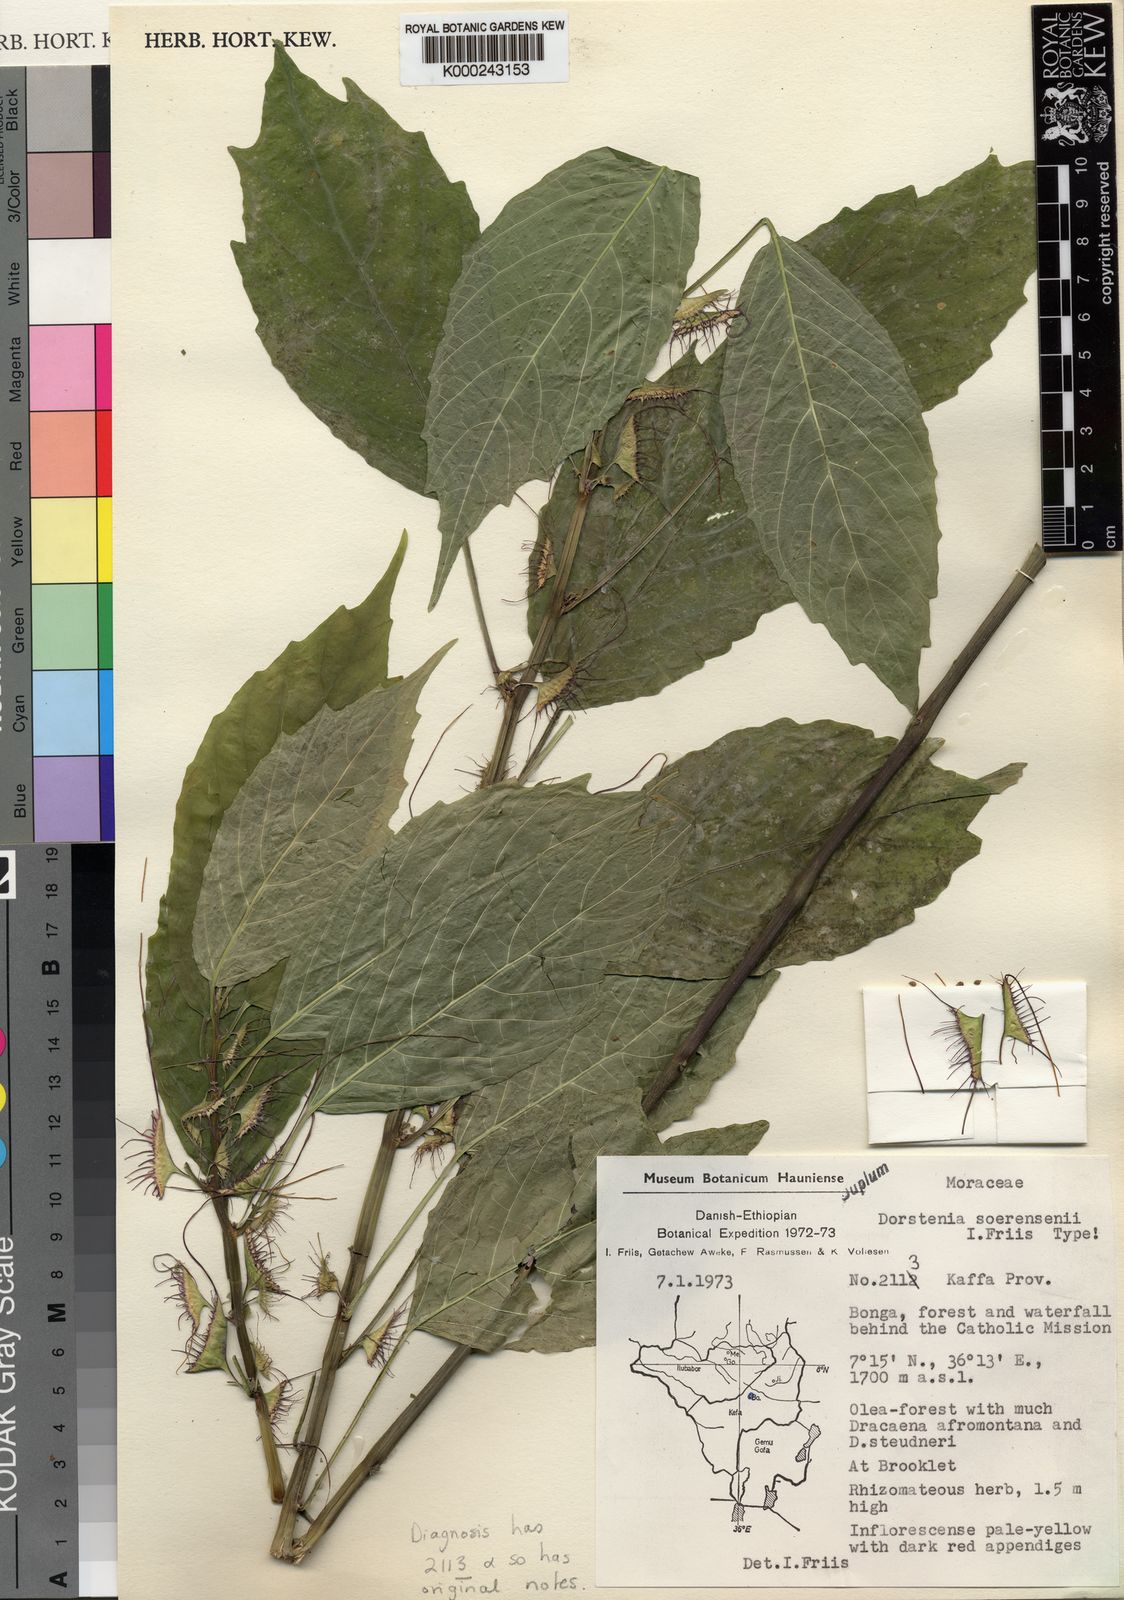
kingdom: Plantae
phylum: Tracheophyta
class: Magnoliopsida
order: Rosales
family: Moraceae
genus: Dorstenia
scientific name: Dorstenia soerensenii
